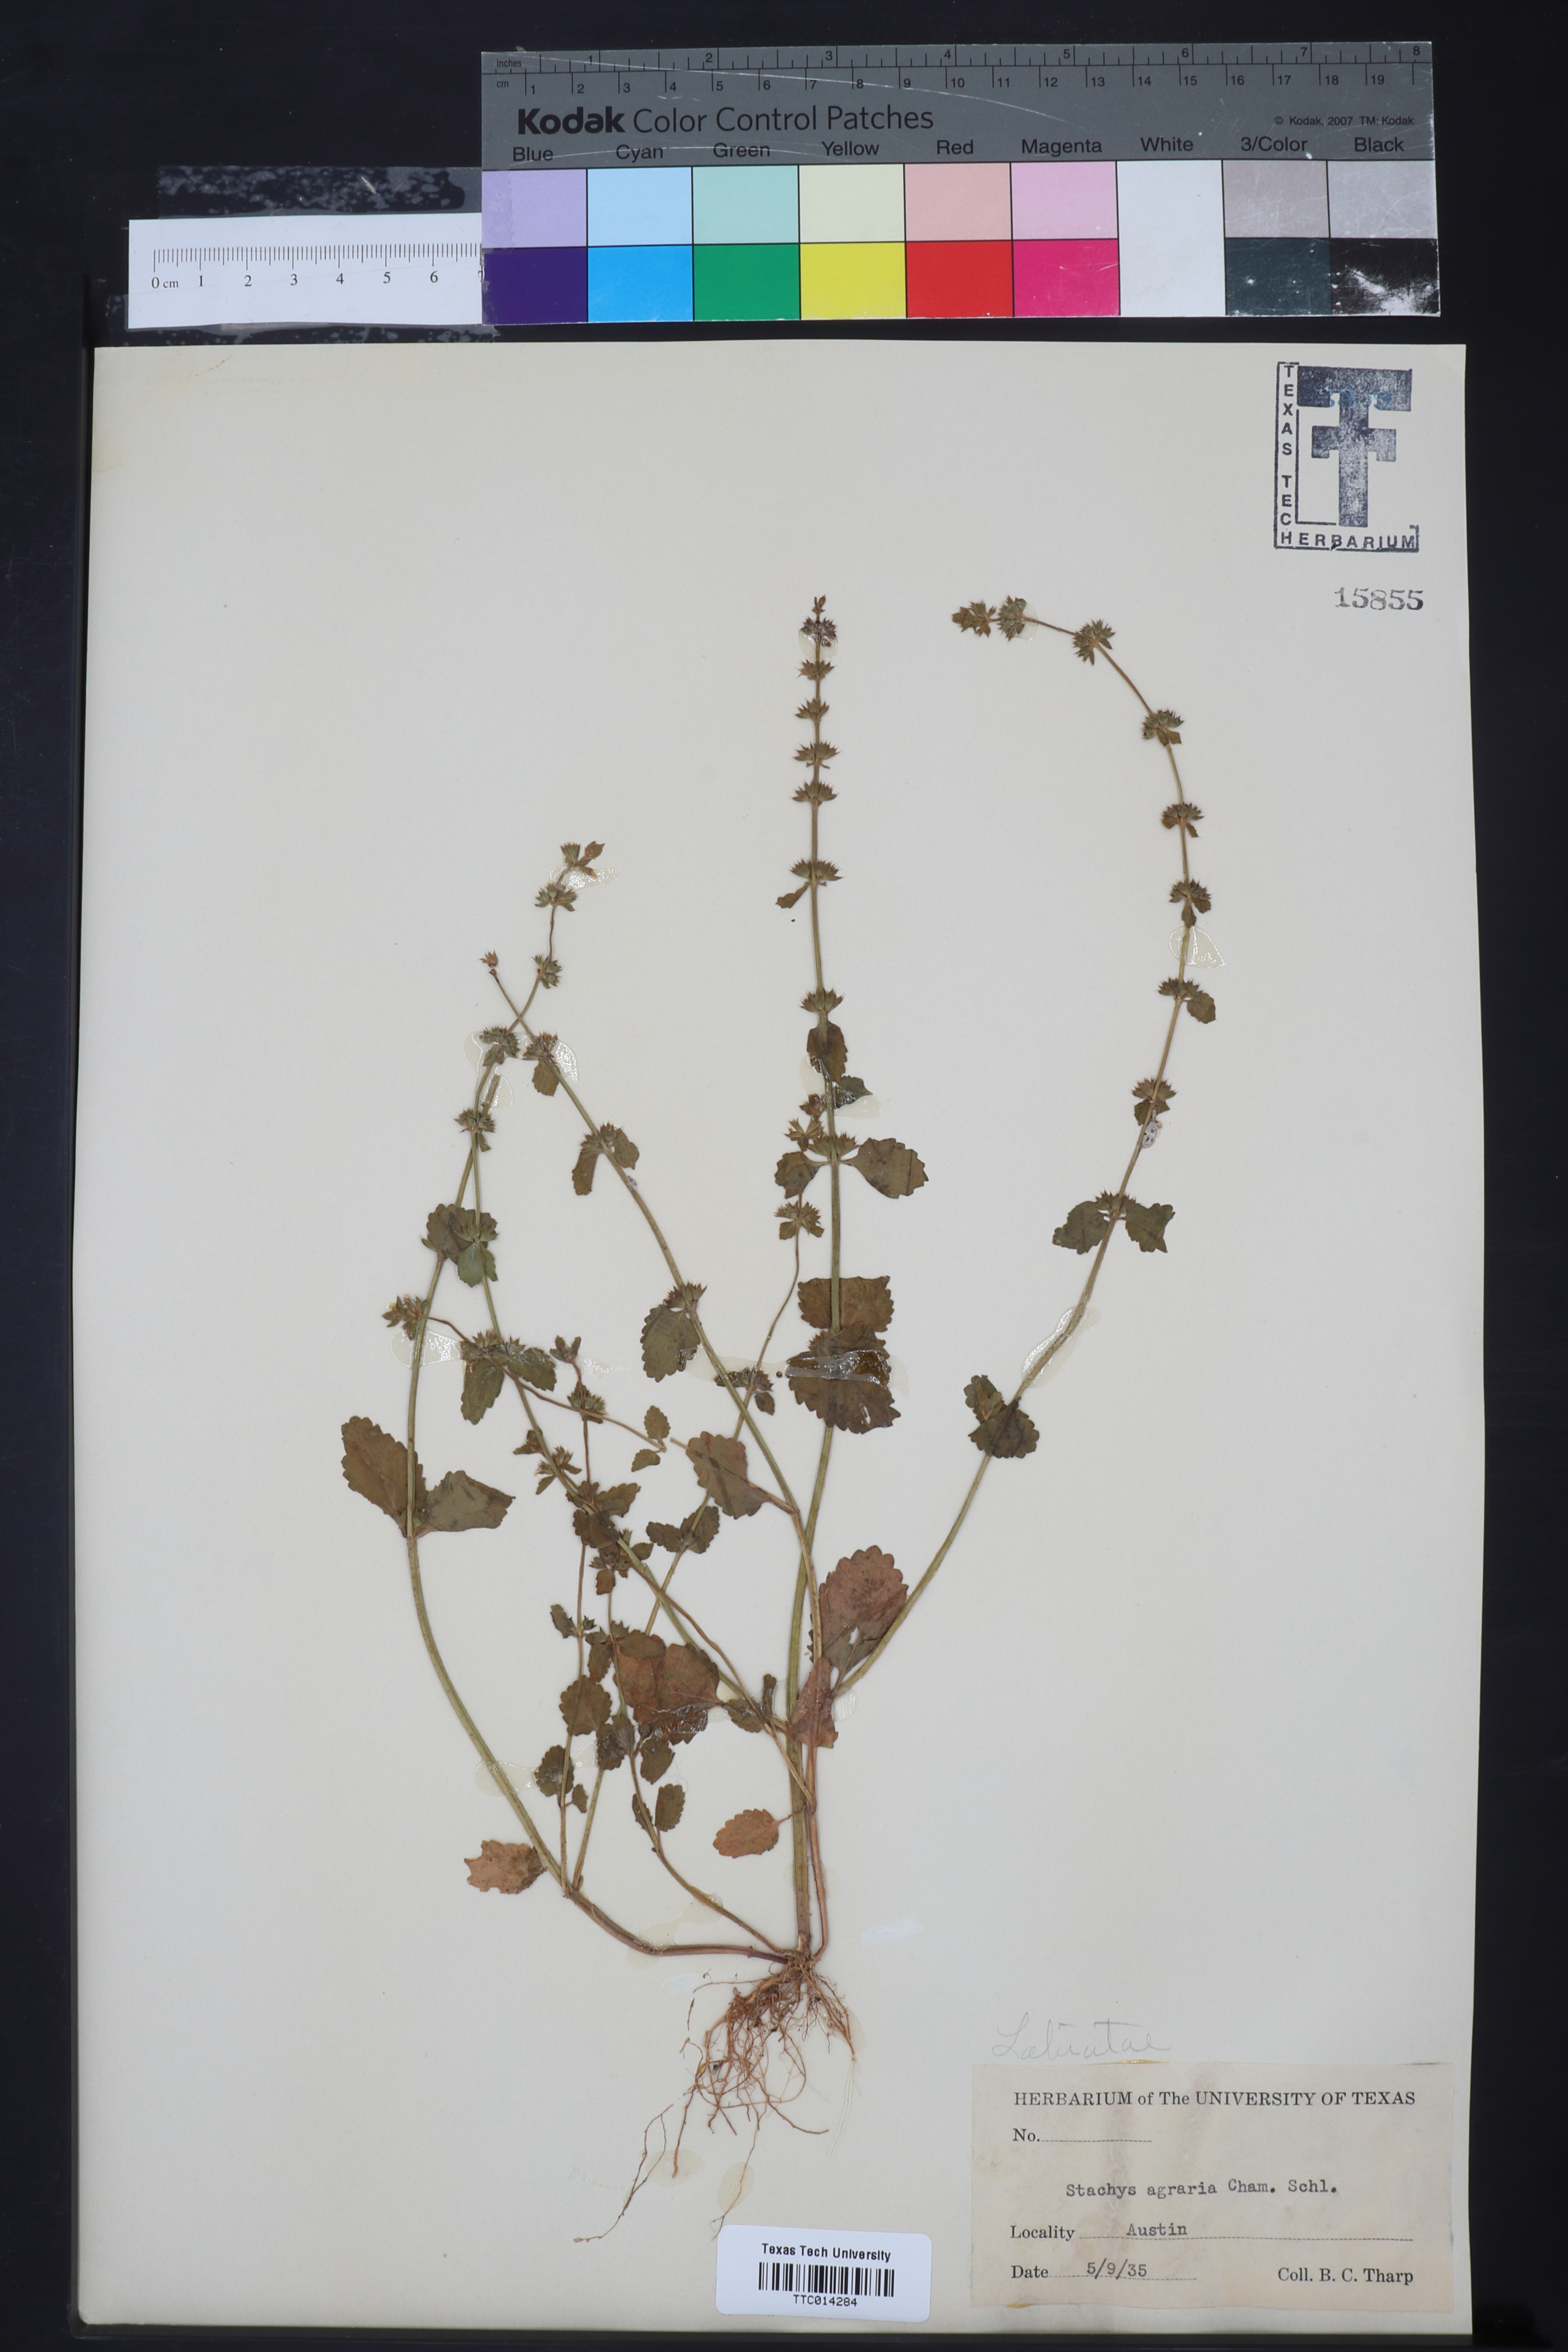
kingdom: Plantae
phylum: Tracheophyta
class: Magnoliopsida
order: Lamiales
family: Lamiaceae
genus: Stachys
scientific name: Stachys agraria
